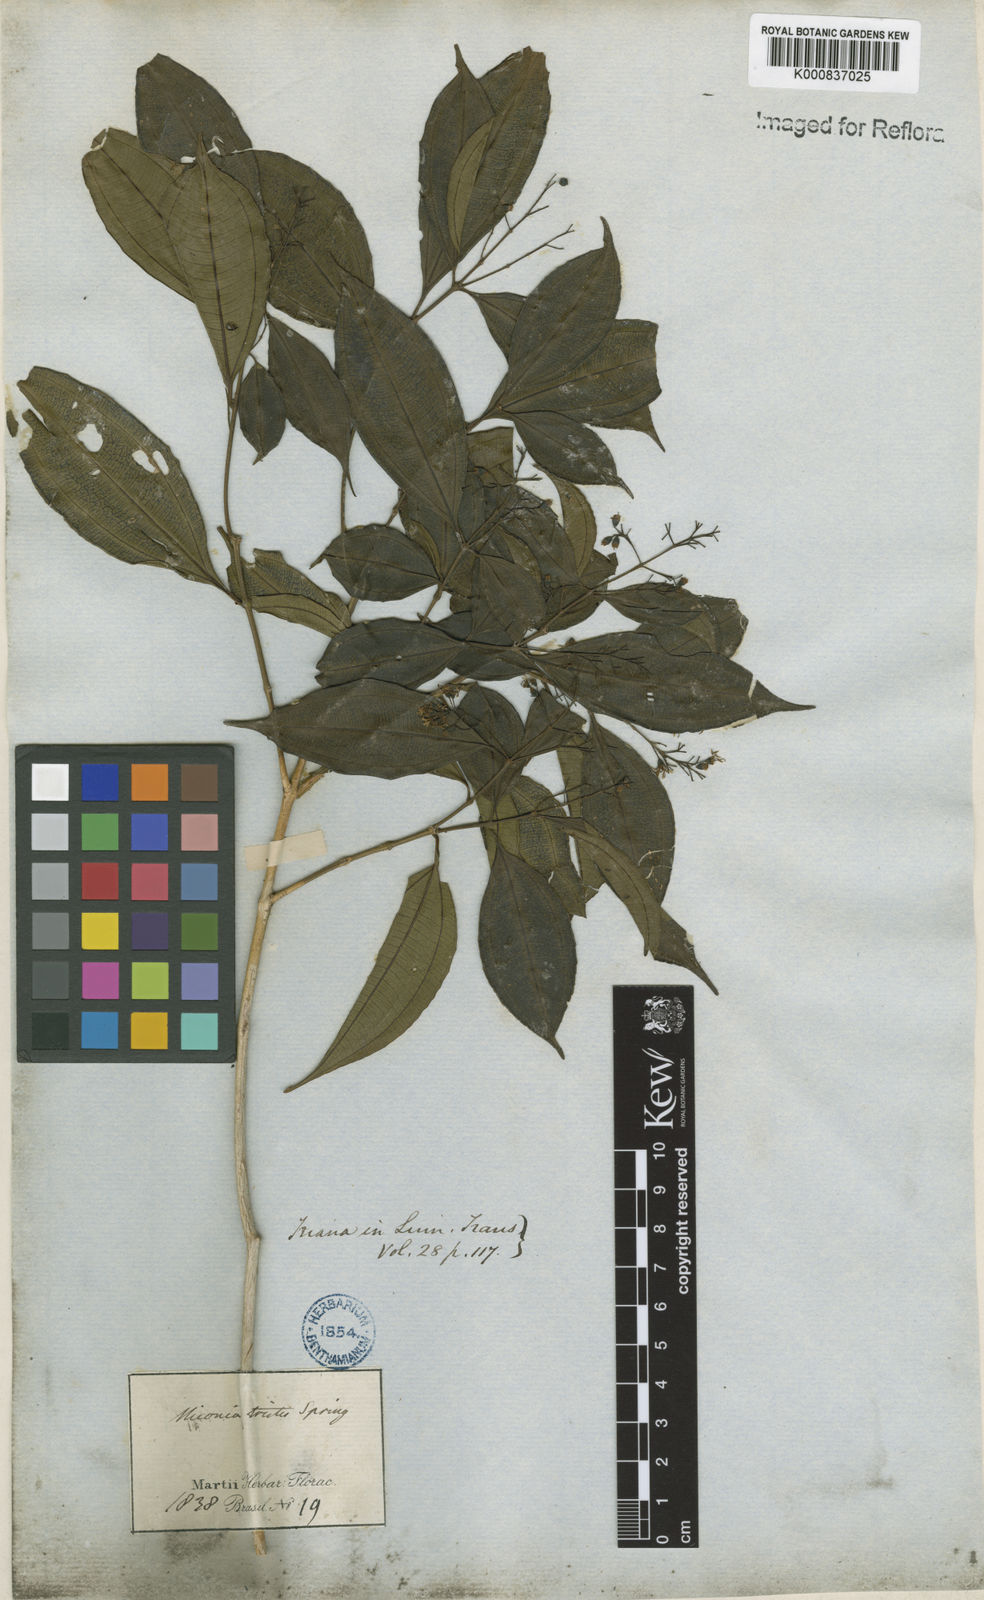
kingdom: Plantae
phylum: Tracheophyta
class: Magnoliopsida
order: Myrtales
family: Melastomataceae
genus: Miconia
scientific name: Miconia
